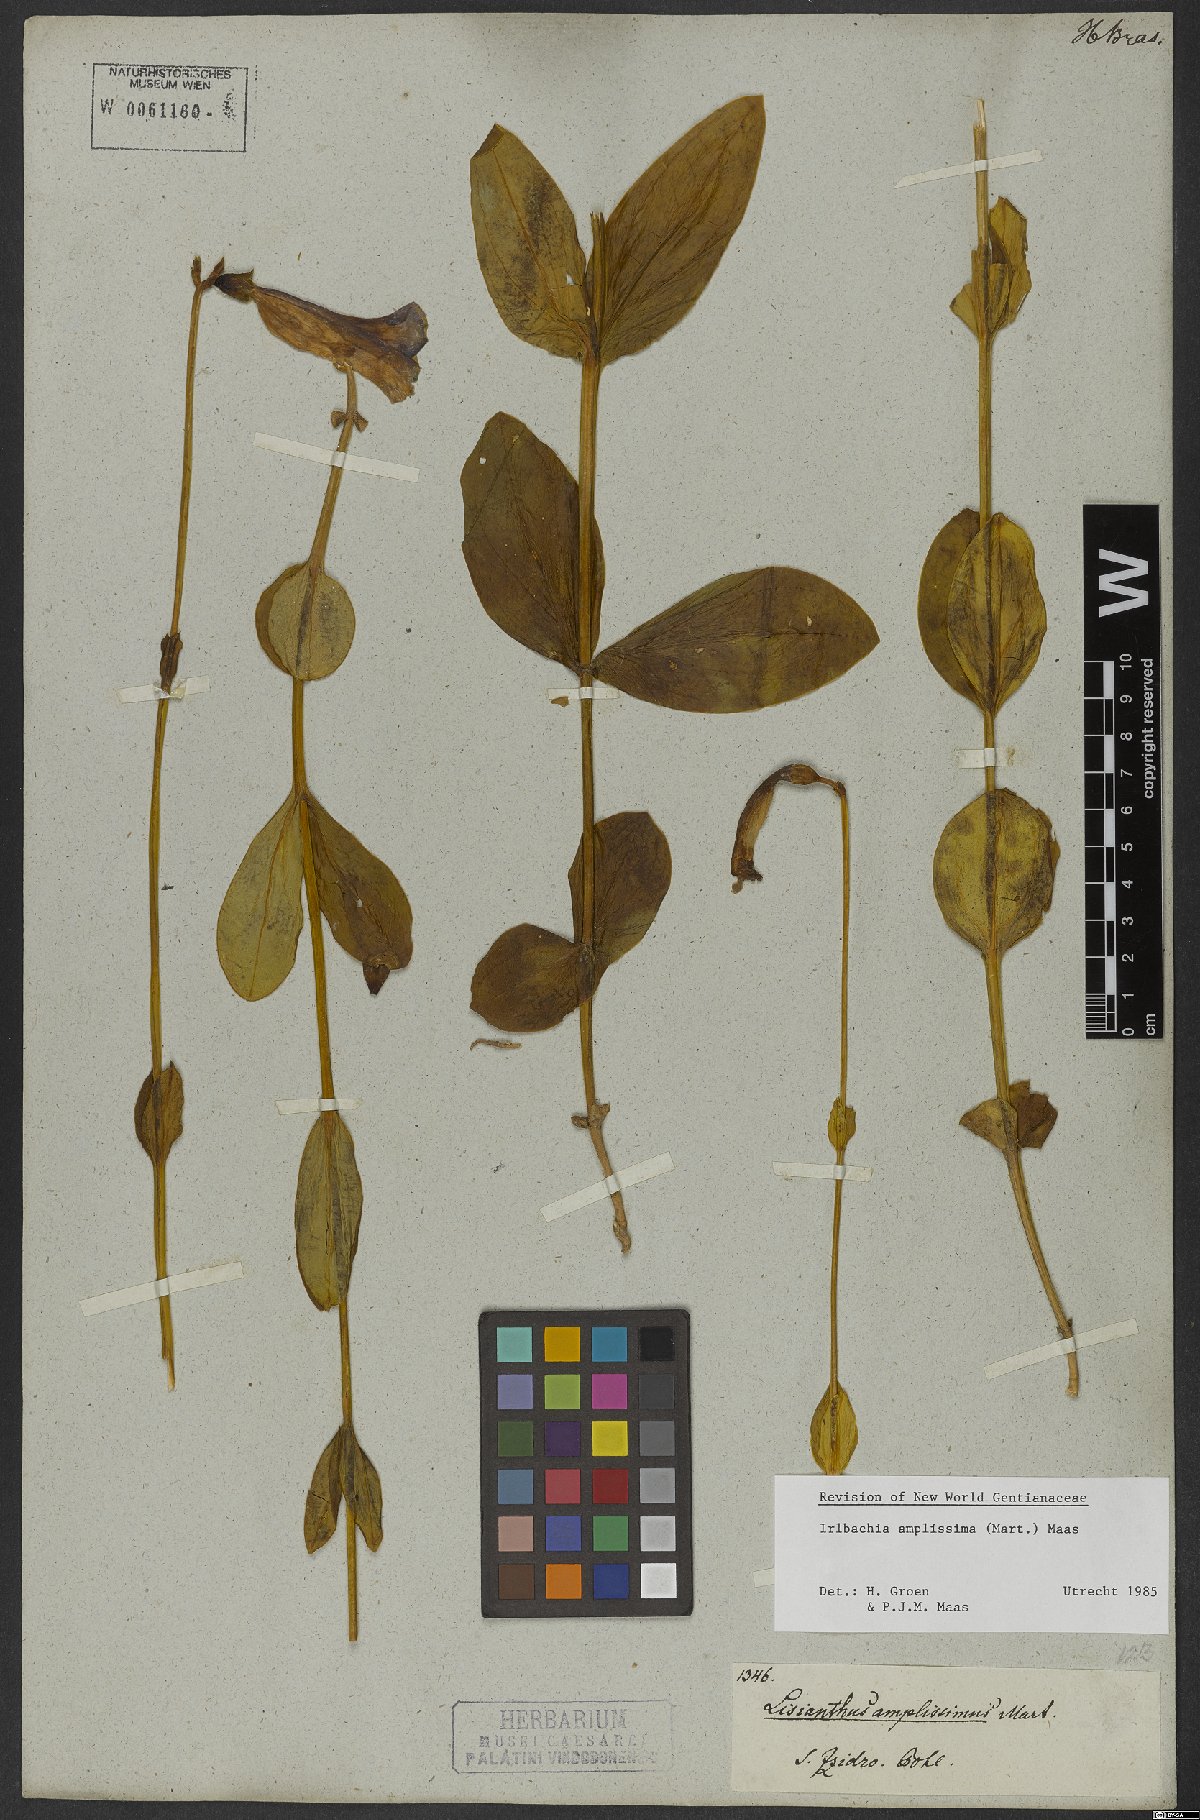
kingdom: Plantae
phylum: Tracheophyta
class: Magnoliopsida
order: Gentianales
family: Gentianaceae
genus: Calolisianthus
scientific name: Calolisianthus amplissimus
